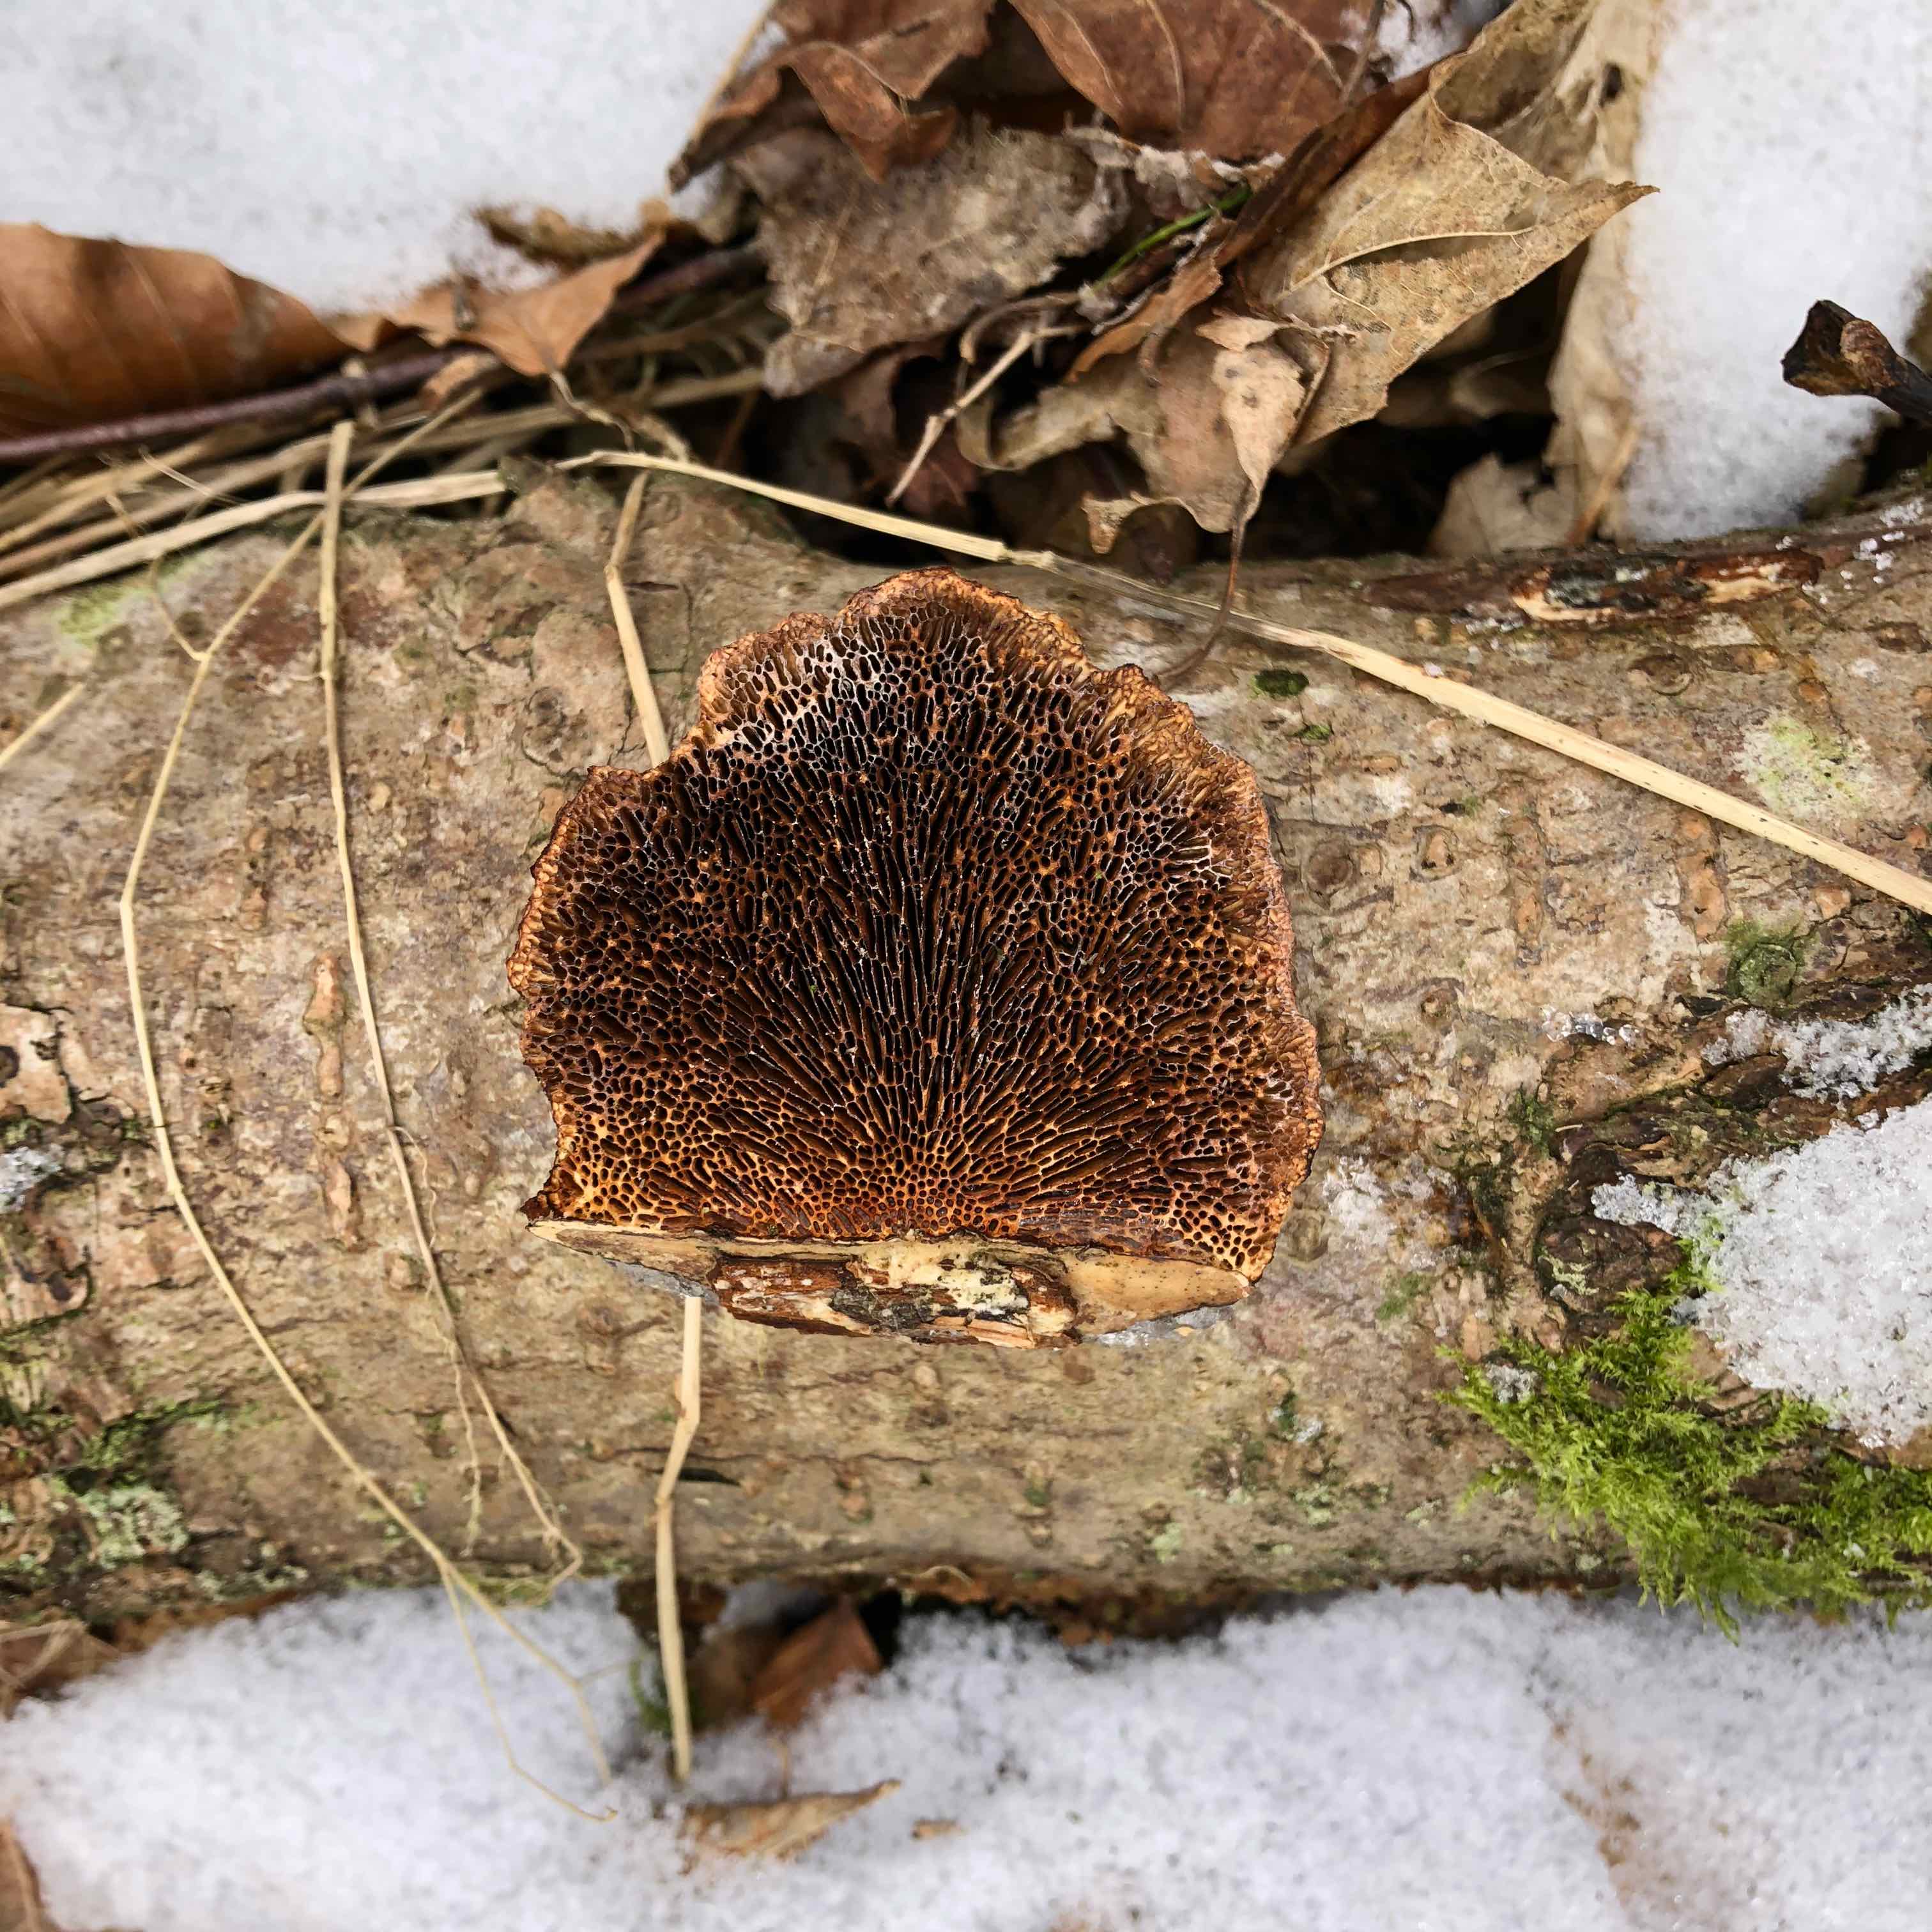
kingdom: Fungi
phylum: Basidiomycota
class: Agaricomycetes
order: Polyporales
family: Polyporaceae
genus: Daedaleopsis
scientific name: Daedaleopsis confragosa
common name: rødmende læderporesvamp
